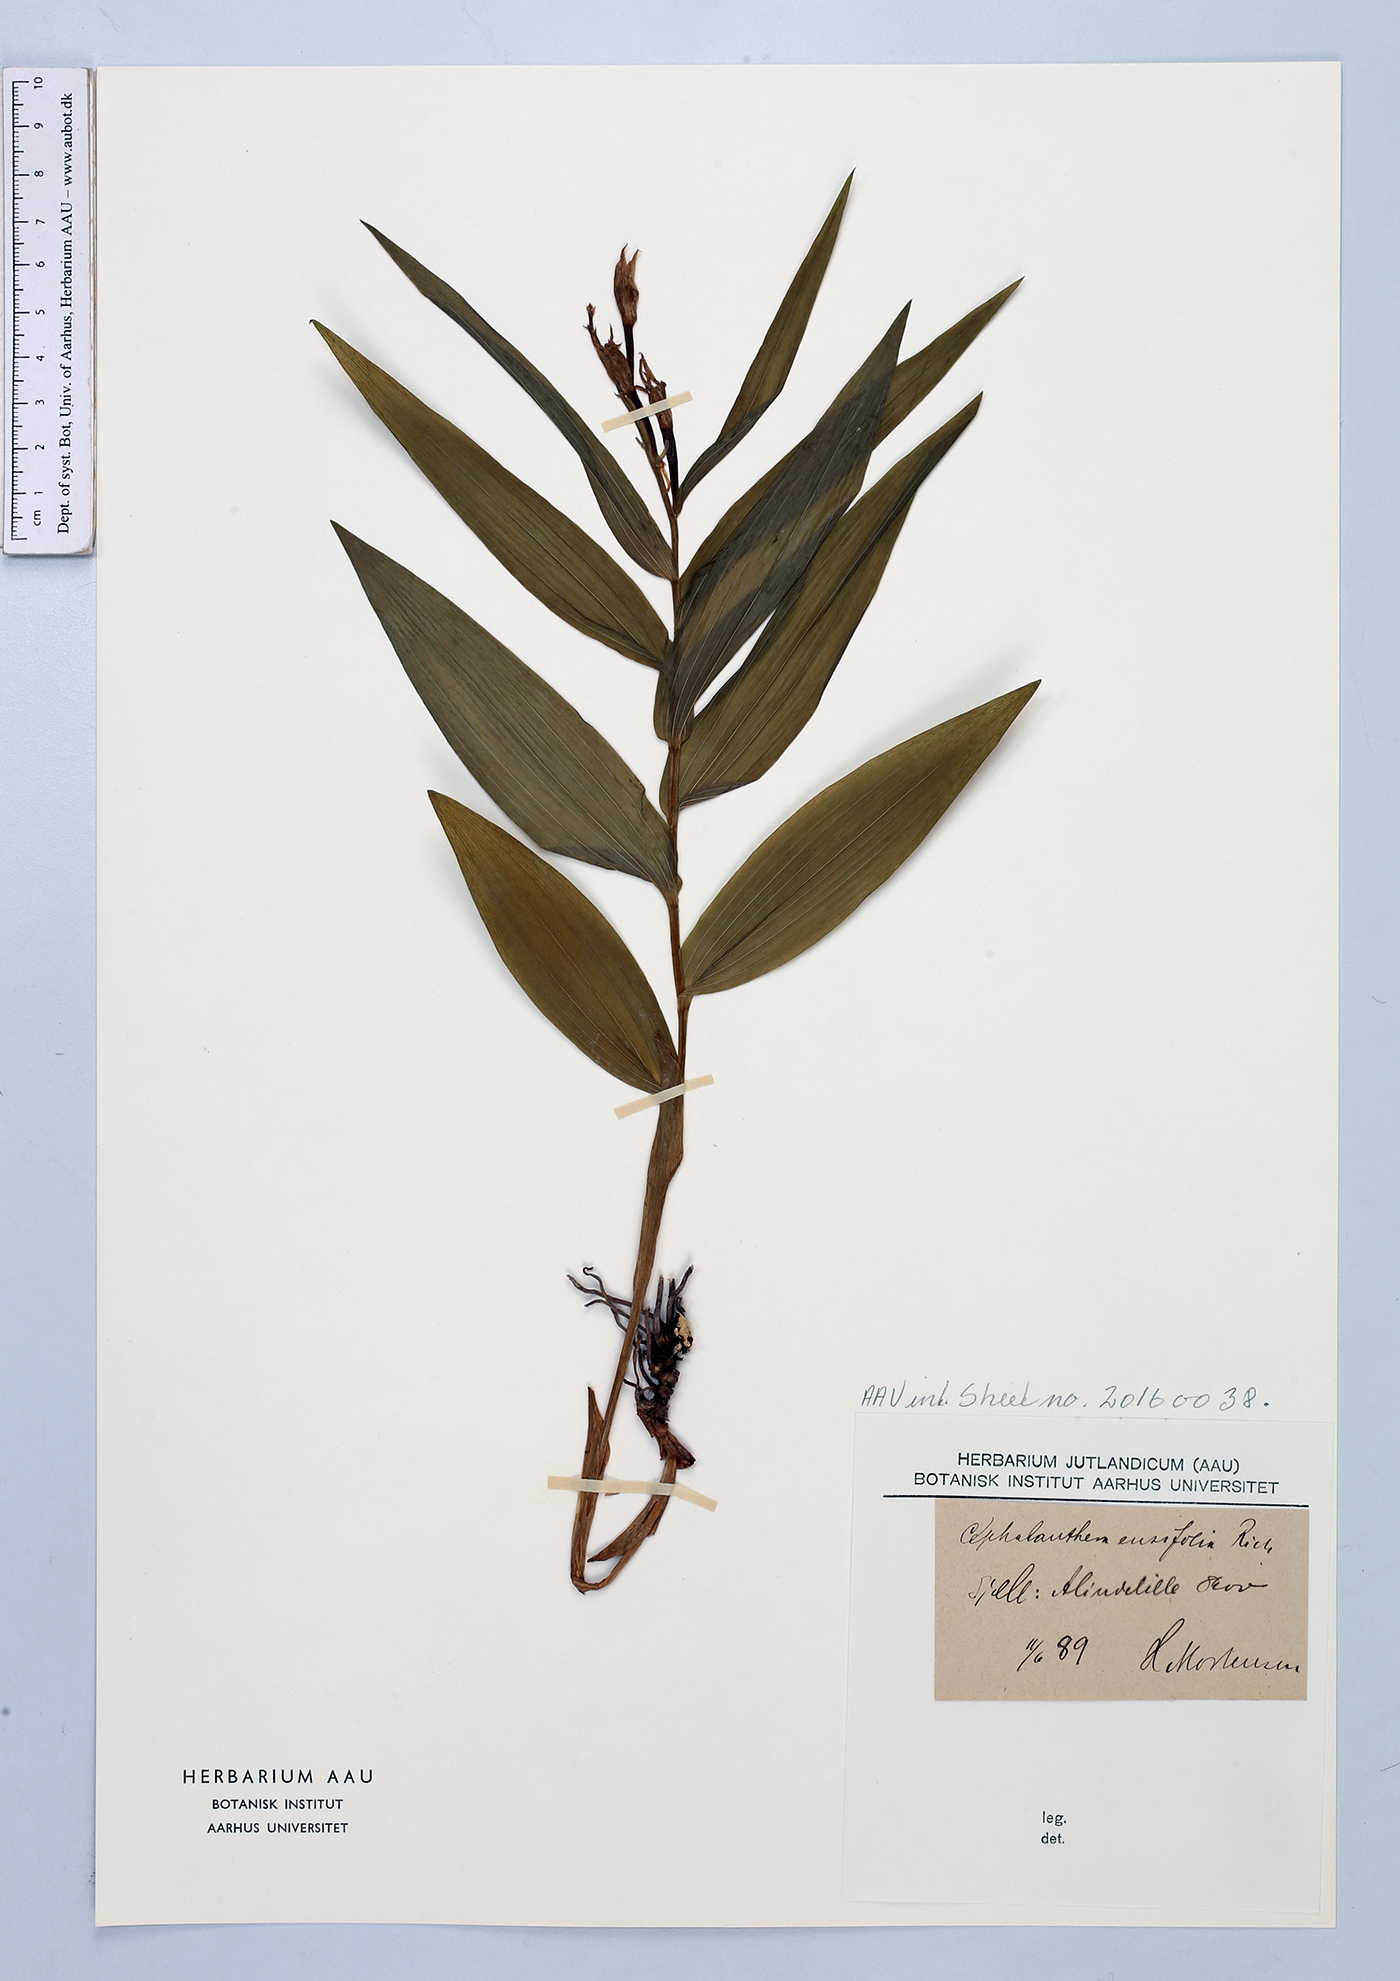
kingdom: Plantae
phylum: Tracheophyta
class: Liliopsida
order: Asparagales
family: Orchidaceae
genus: Cephalanthera
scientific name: Cephalanthera longifolia
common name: Narrow-leaved helleborine
